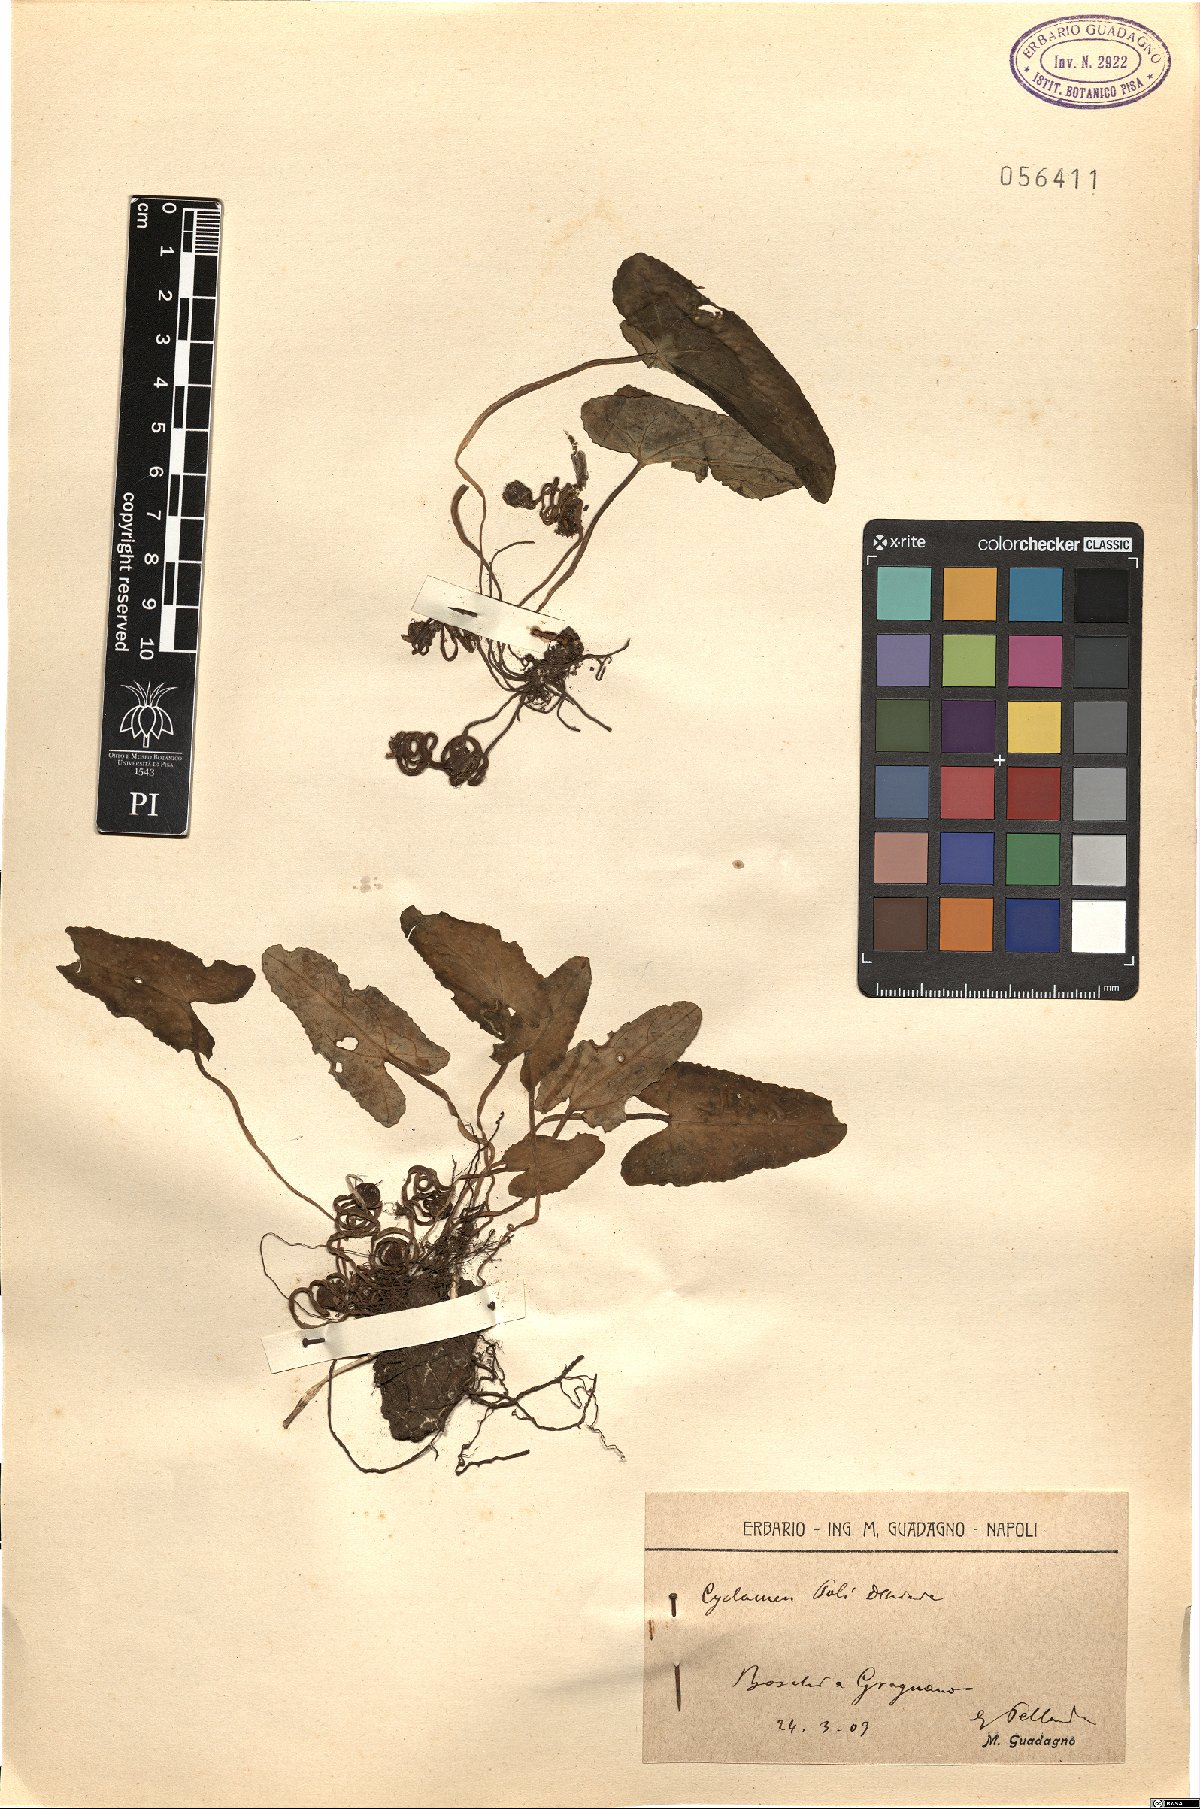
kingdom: Plantae
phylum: Tracheophyta
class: Magnoliopsida
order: Ericales
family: Primulaceae
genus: Cyclamen
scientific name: Cyclamen hederifolium
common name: Sowbread
